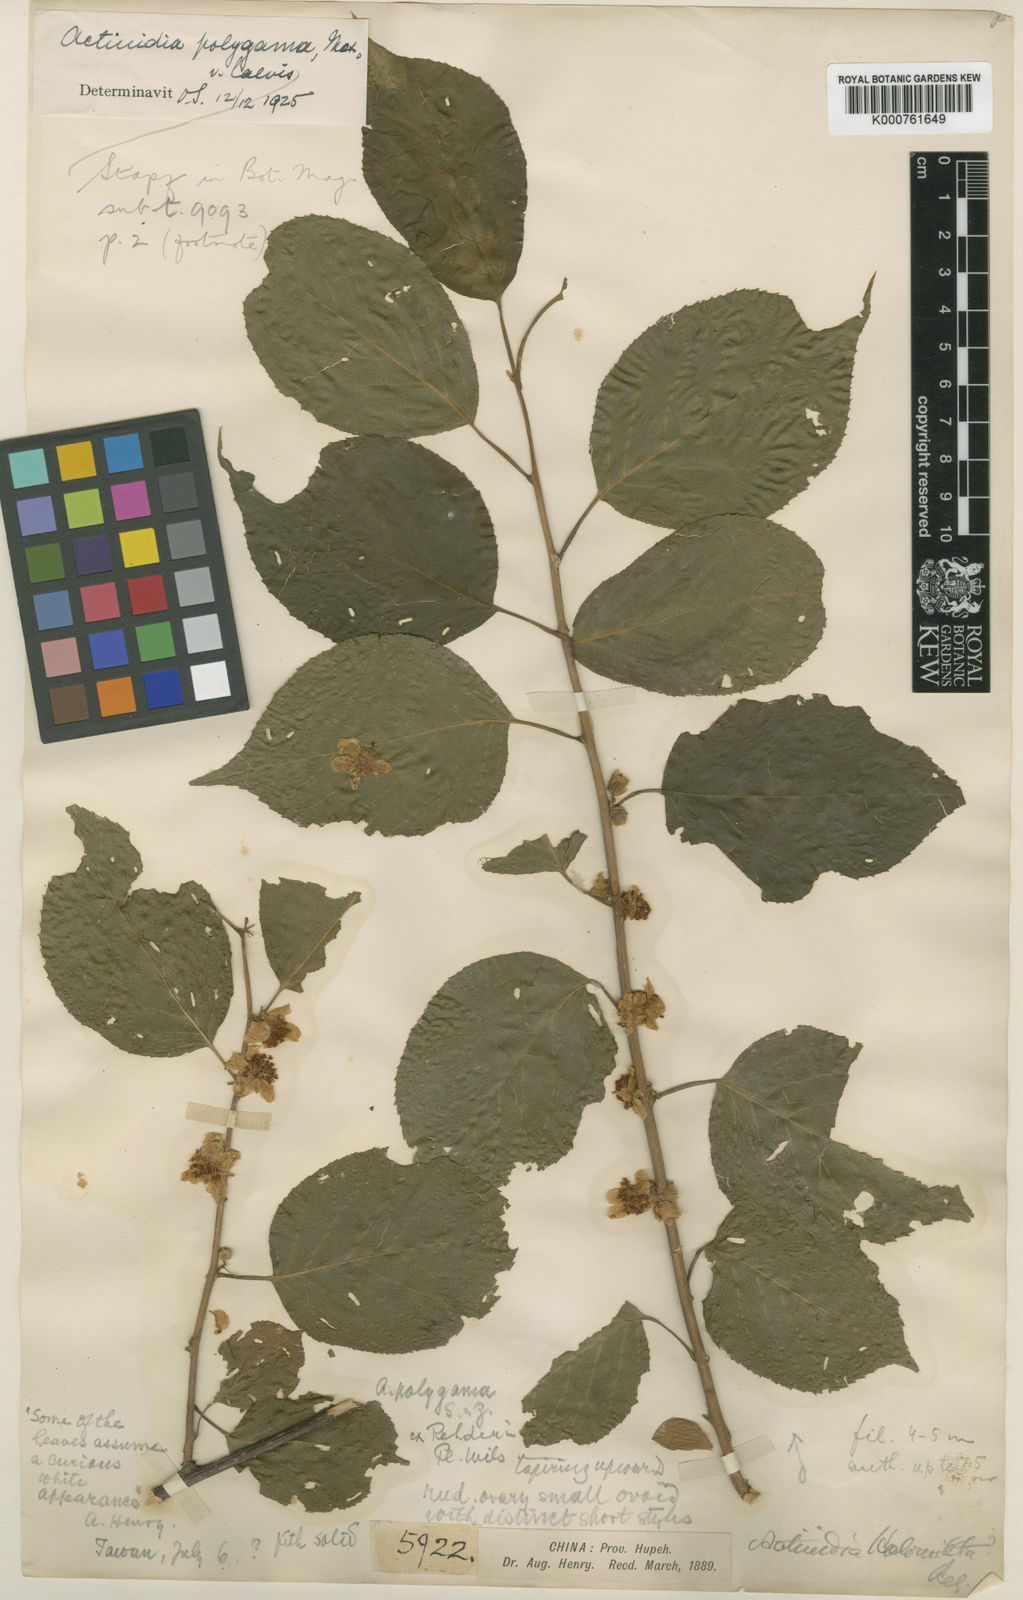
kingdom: Plantae
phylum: Tracheophyta
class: Magnoliopsida
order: Ericales
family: Actinidiaceae
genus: Actinidia
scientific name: Actinidia polygama
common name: Silver vine
